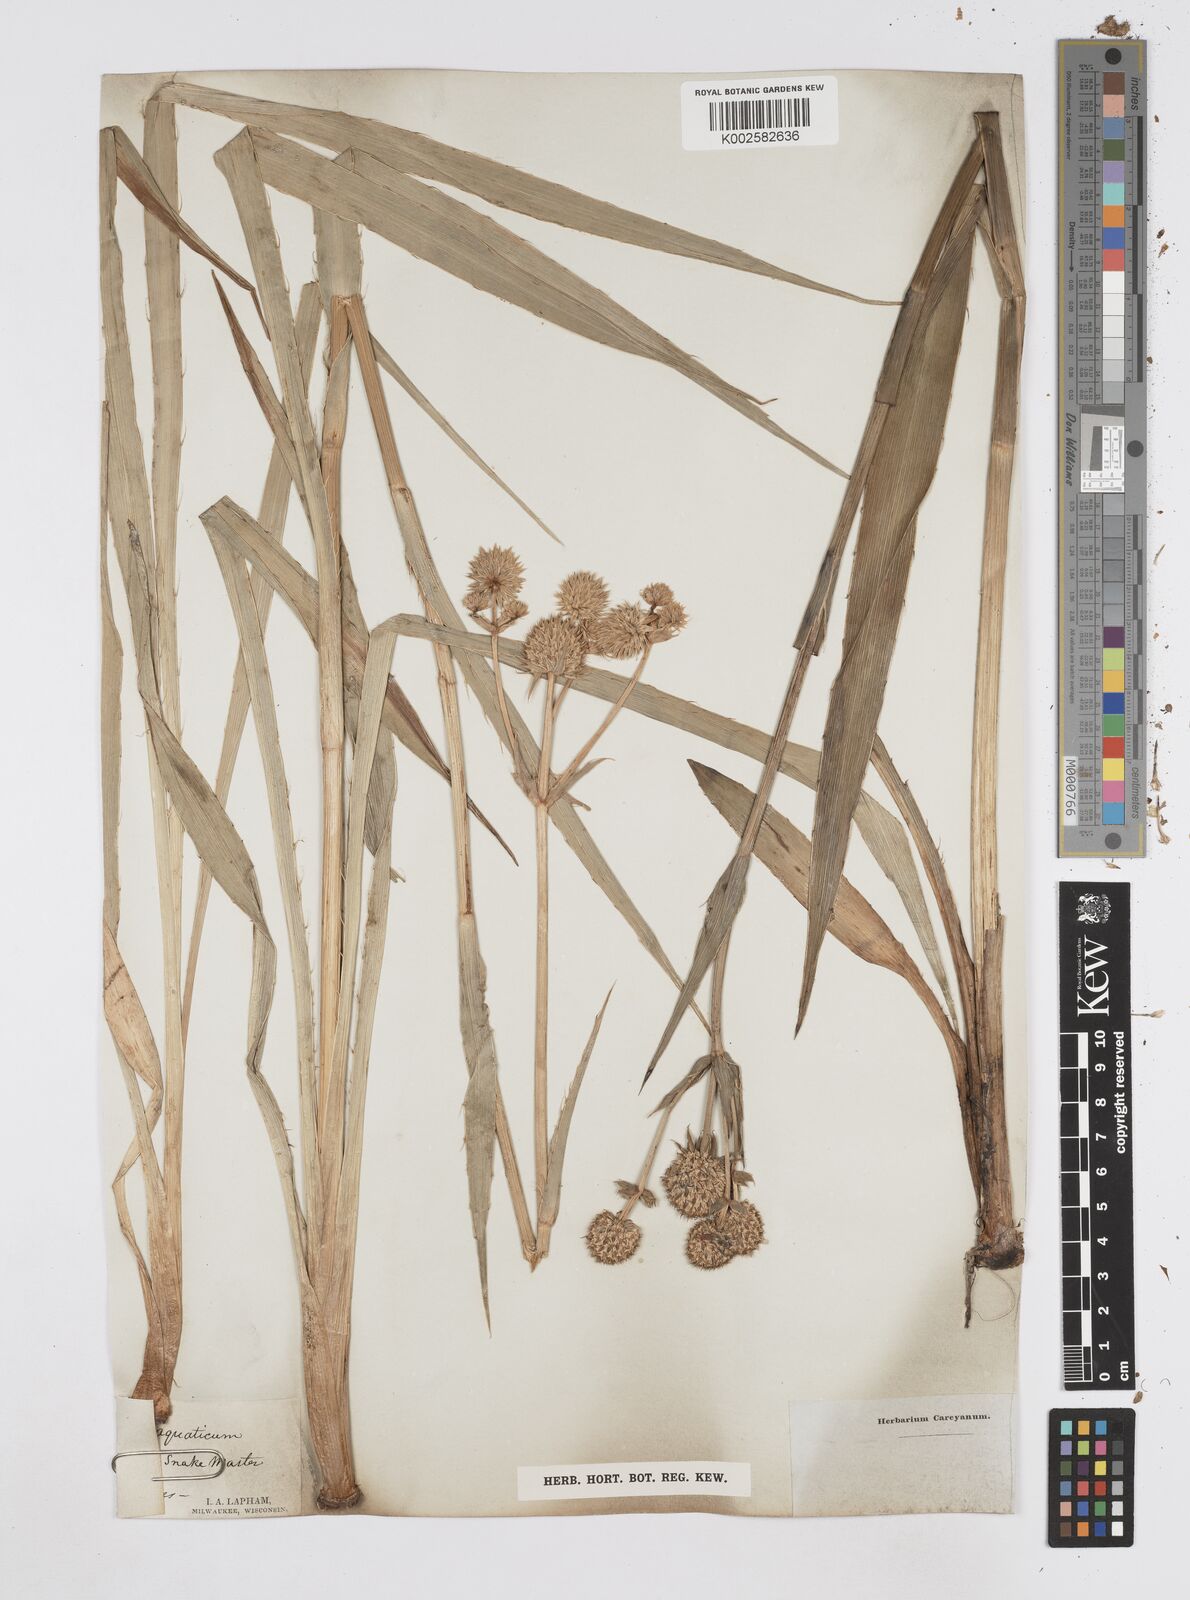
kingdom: Plantae
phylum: Tracheophyta
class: Magnoliopsida
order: Apiales
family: Apiaceae
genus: Eryngium
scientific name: Eryngium yuccifolium
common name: Button eryngo
